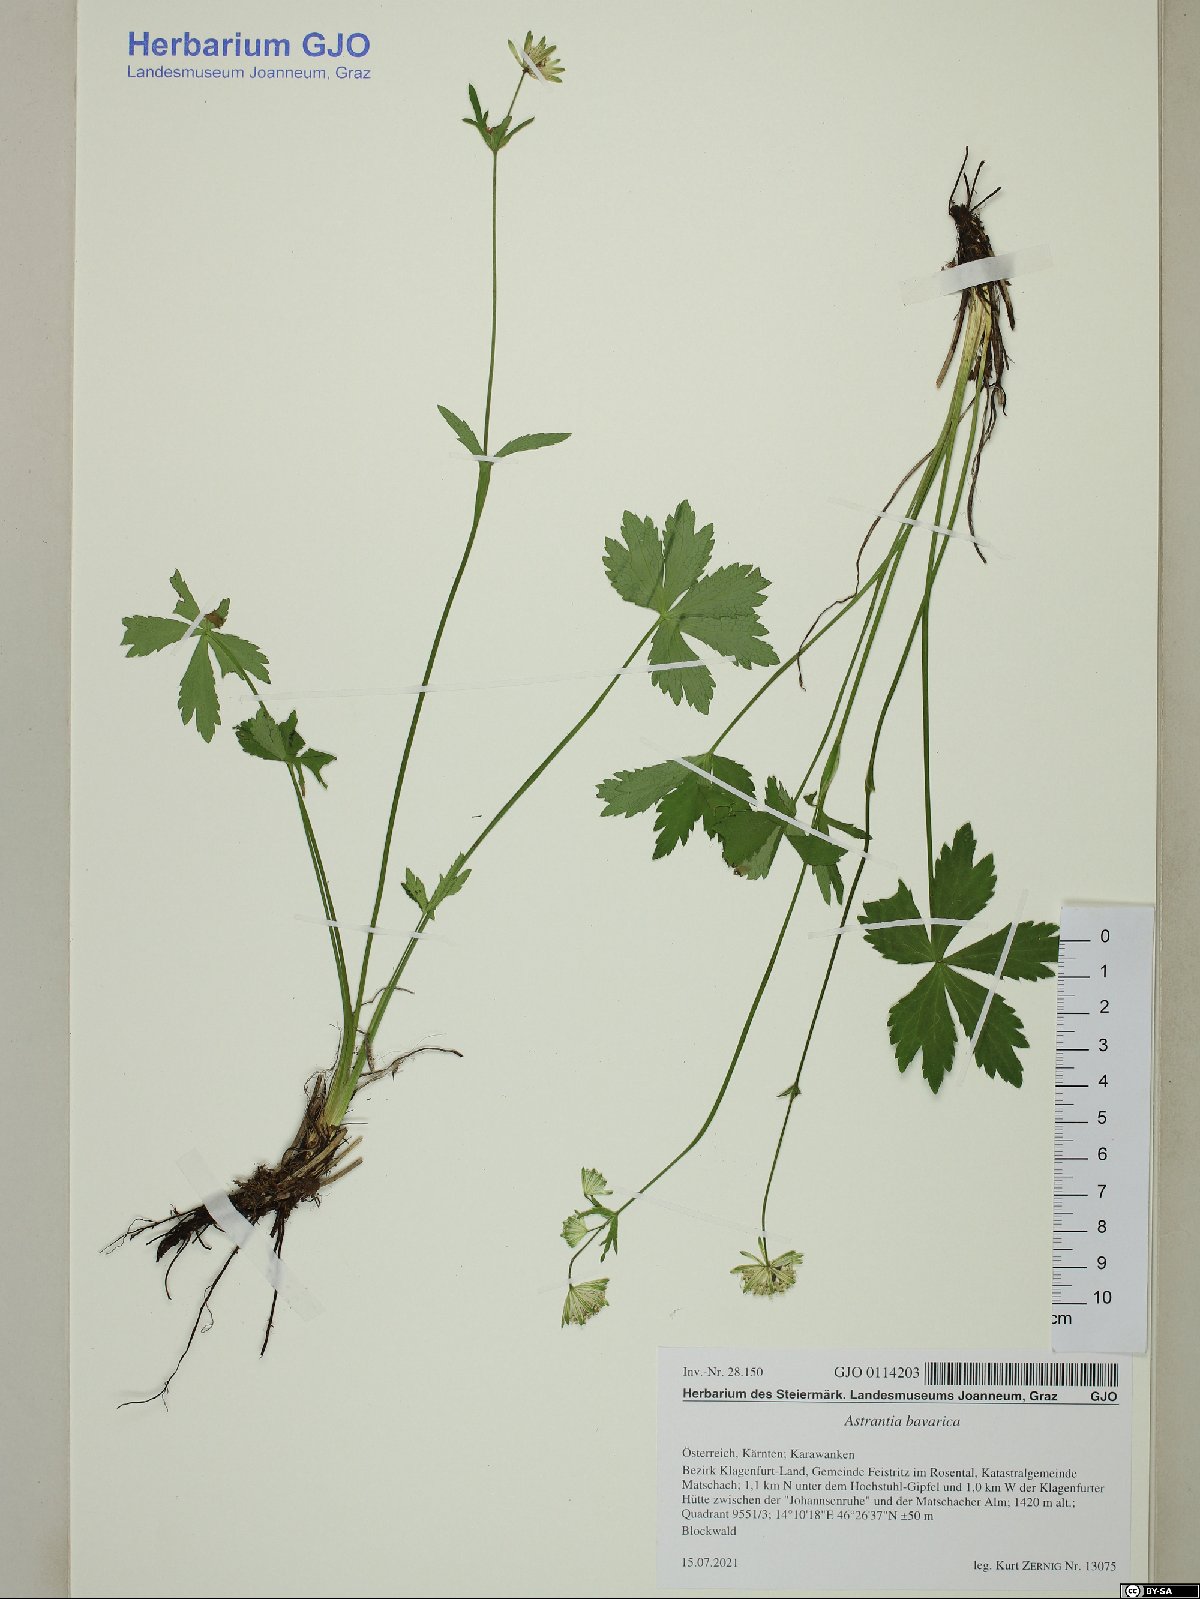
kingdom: Plantae
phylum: Tracheophyta
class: Magnoliopsida
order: Apiales
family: Apiaceae
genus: Astrantia
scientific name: Astrantia bavarica
